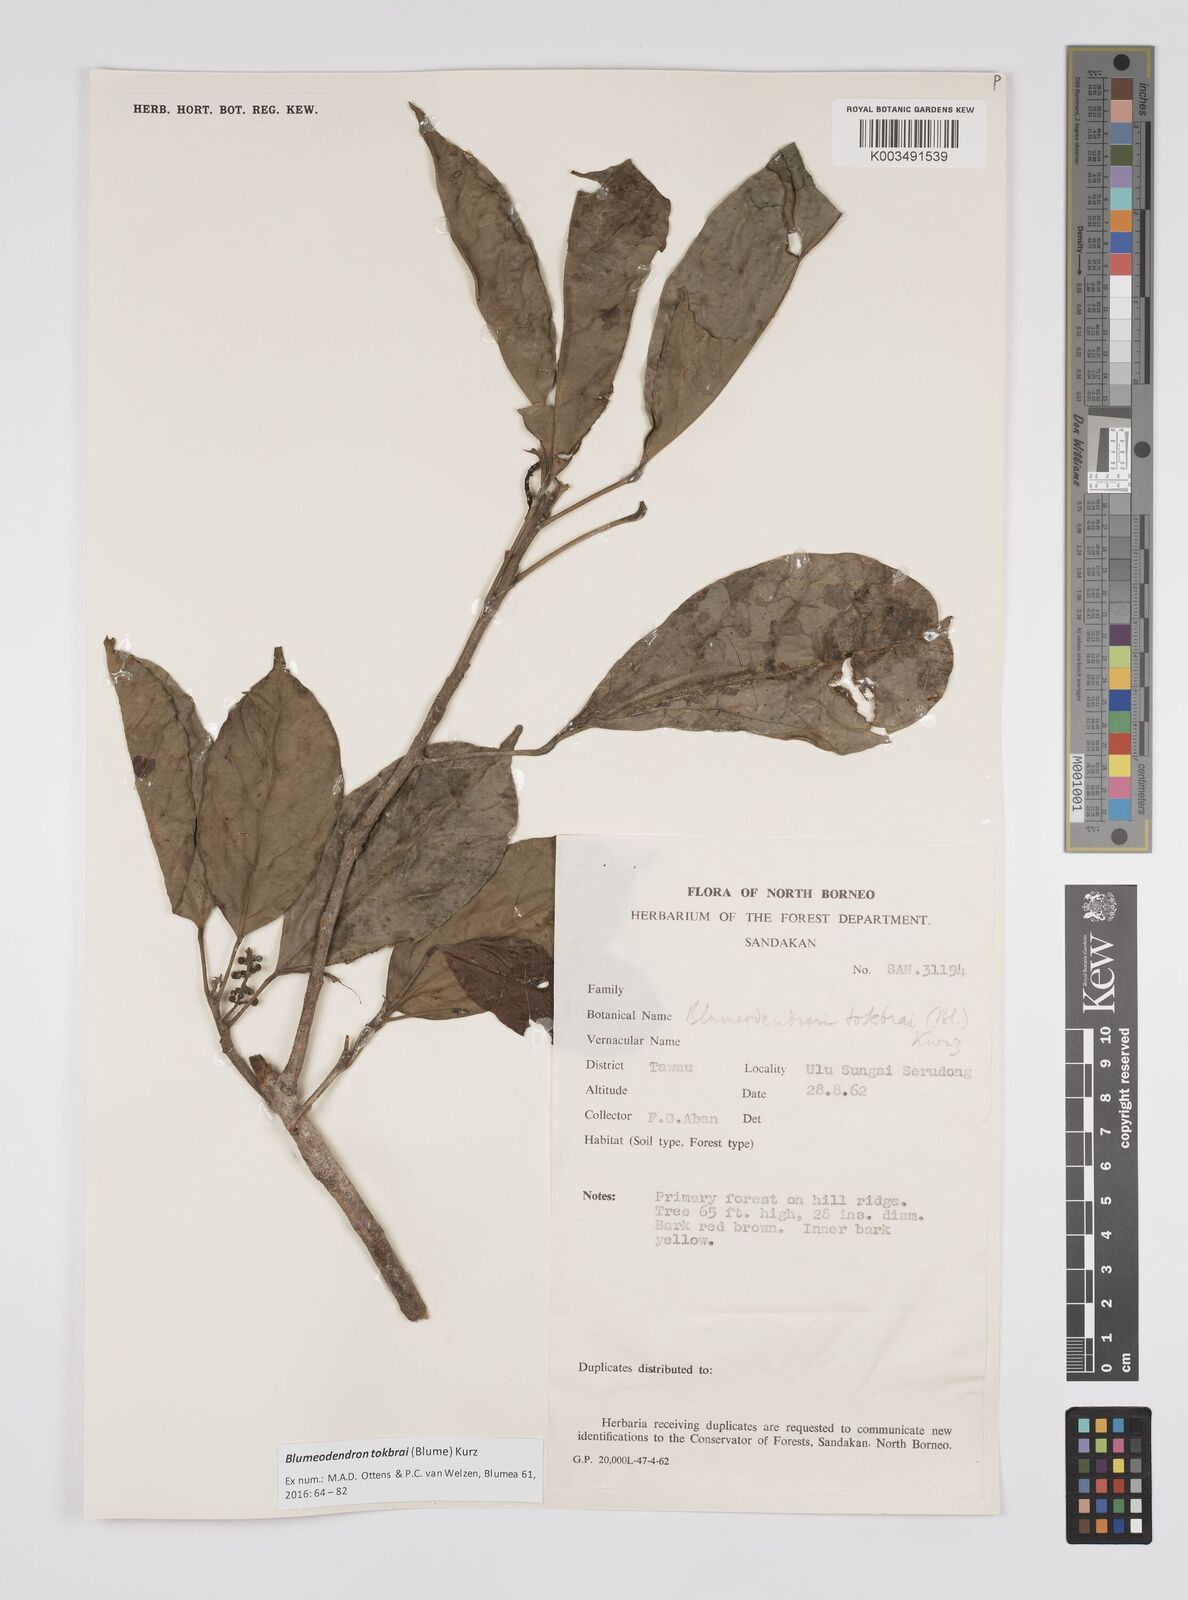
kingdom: Plantae
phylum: Tracheophyta
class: Magnoliopsida
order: Malpighiales
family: Euphorbiaceae
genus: Blumeodendron
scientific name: Blumeodendron tokbrai
